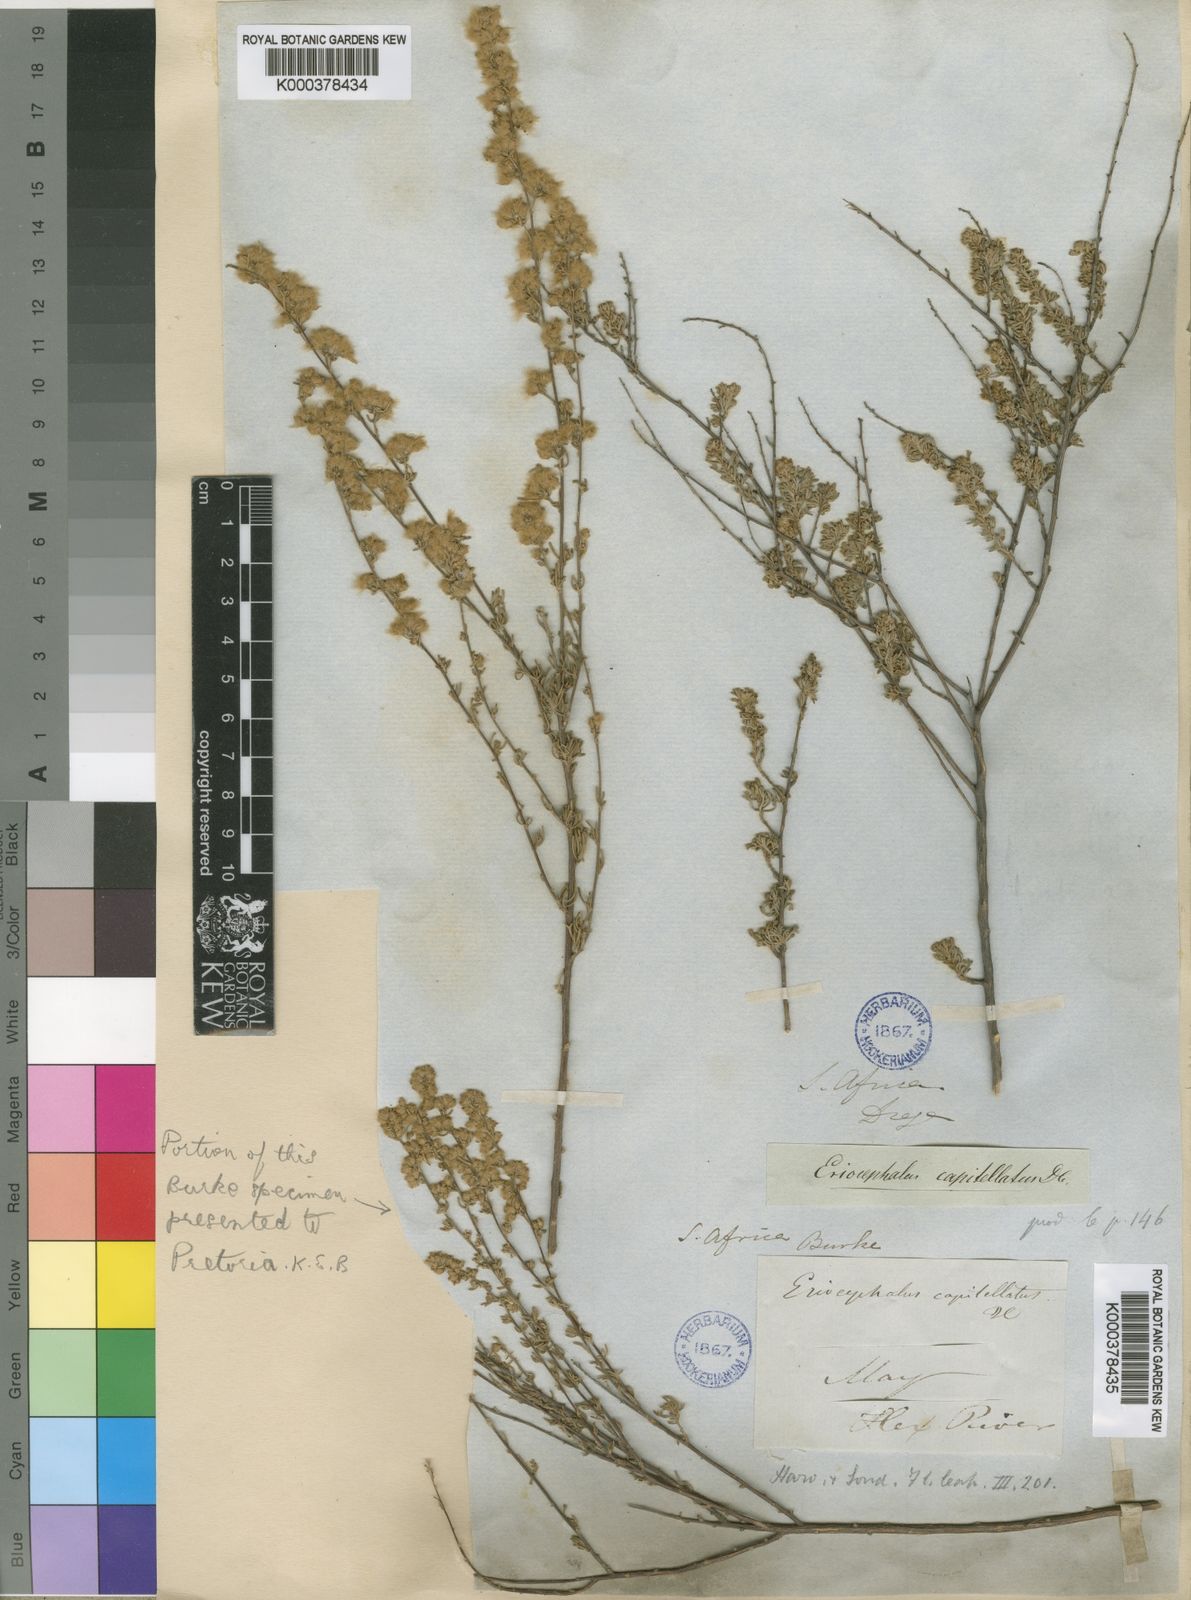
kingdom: Plantae
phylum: Tracheophyta
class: Magnoliopsida
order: Asterales
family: Asteraceae
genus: Eriocephalus
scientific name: Eriocephalus capitellatus
